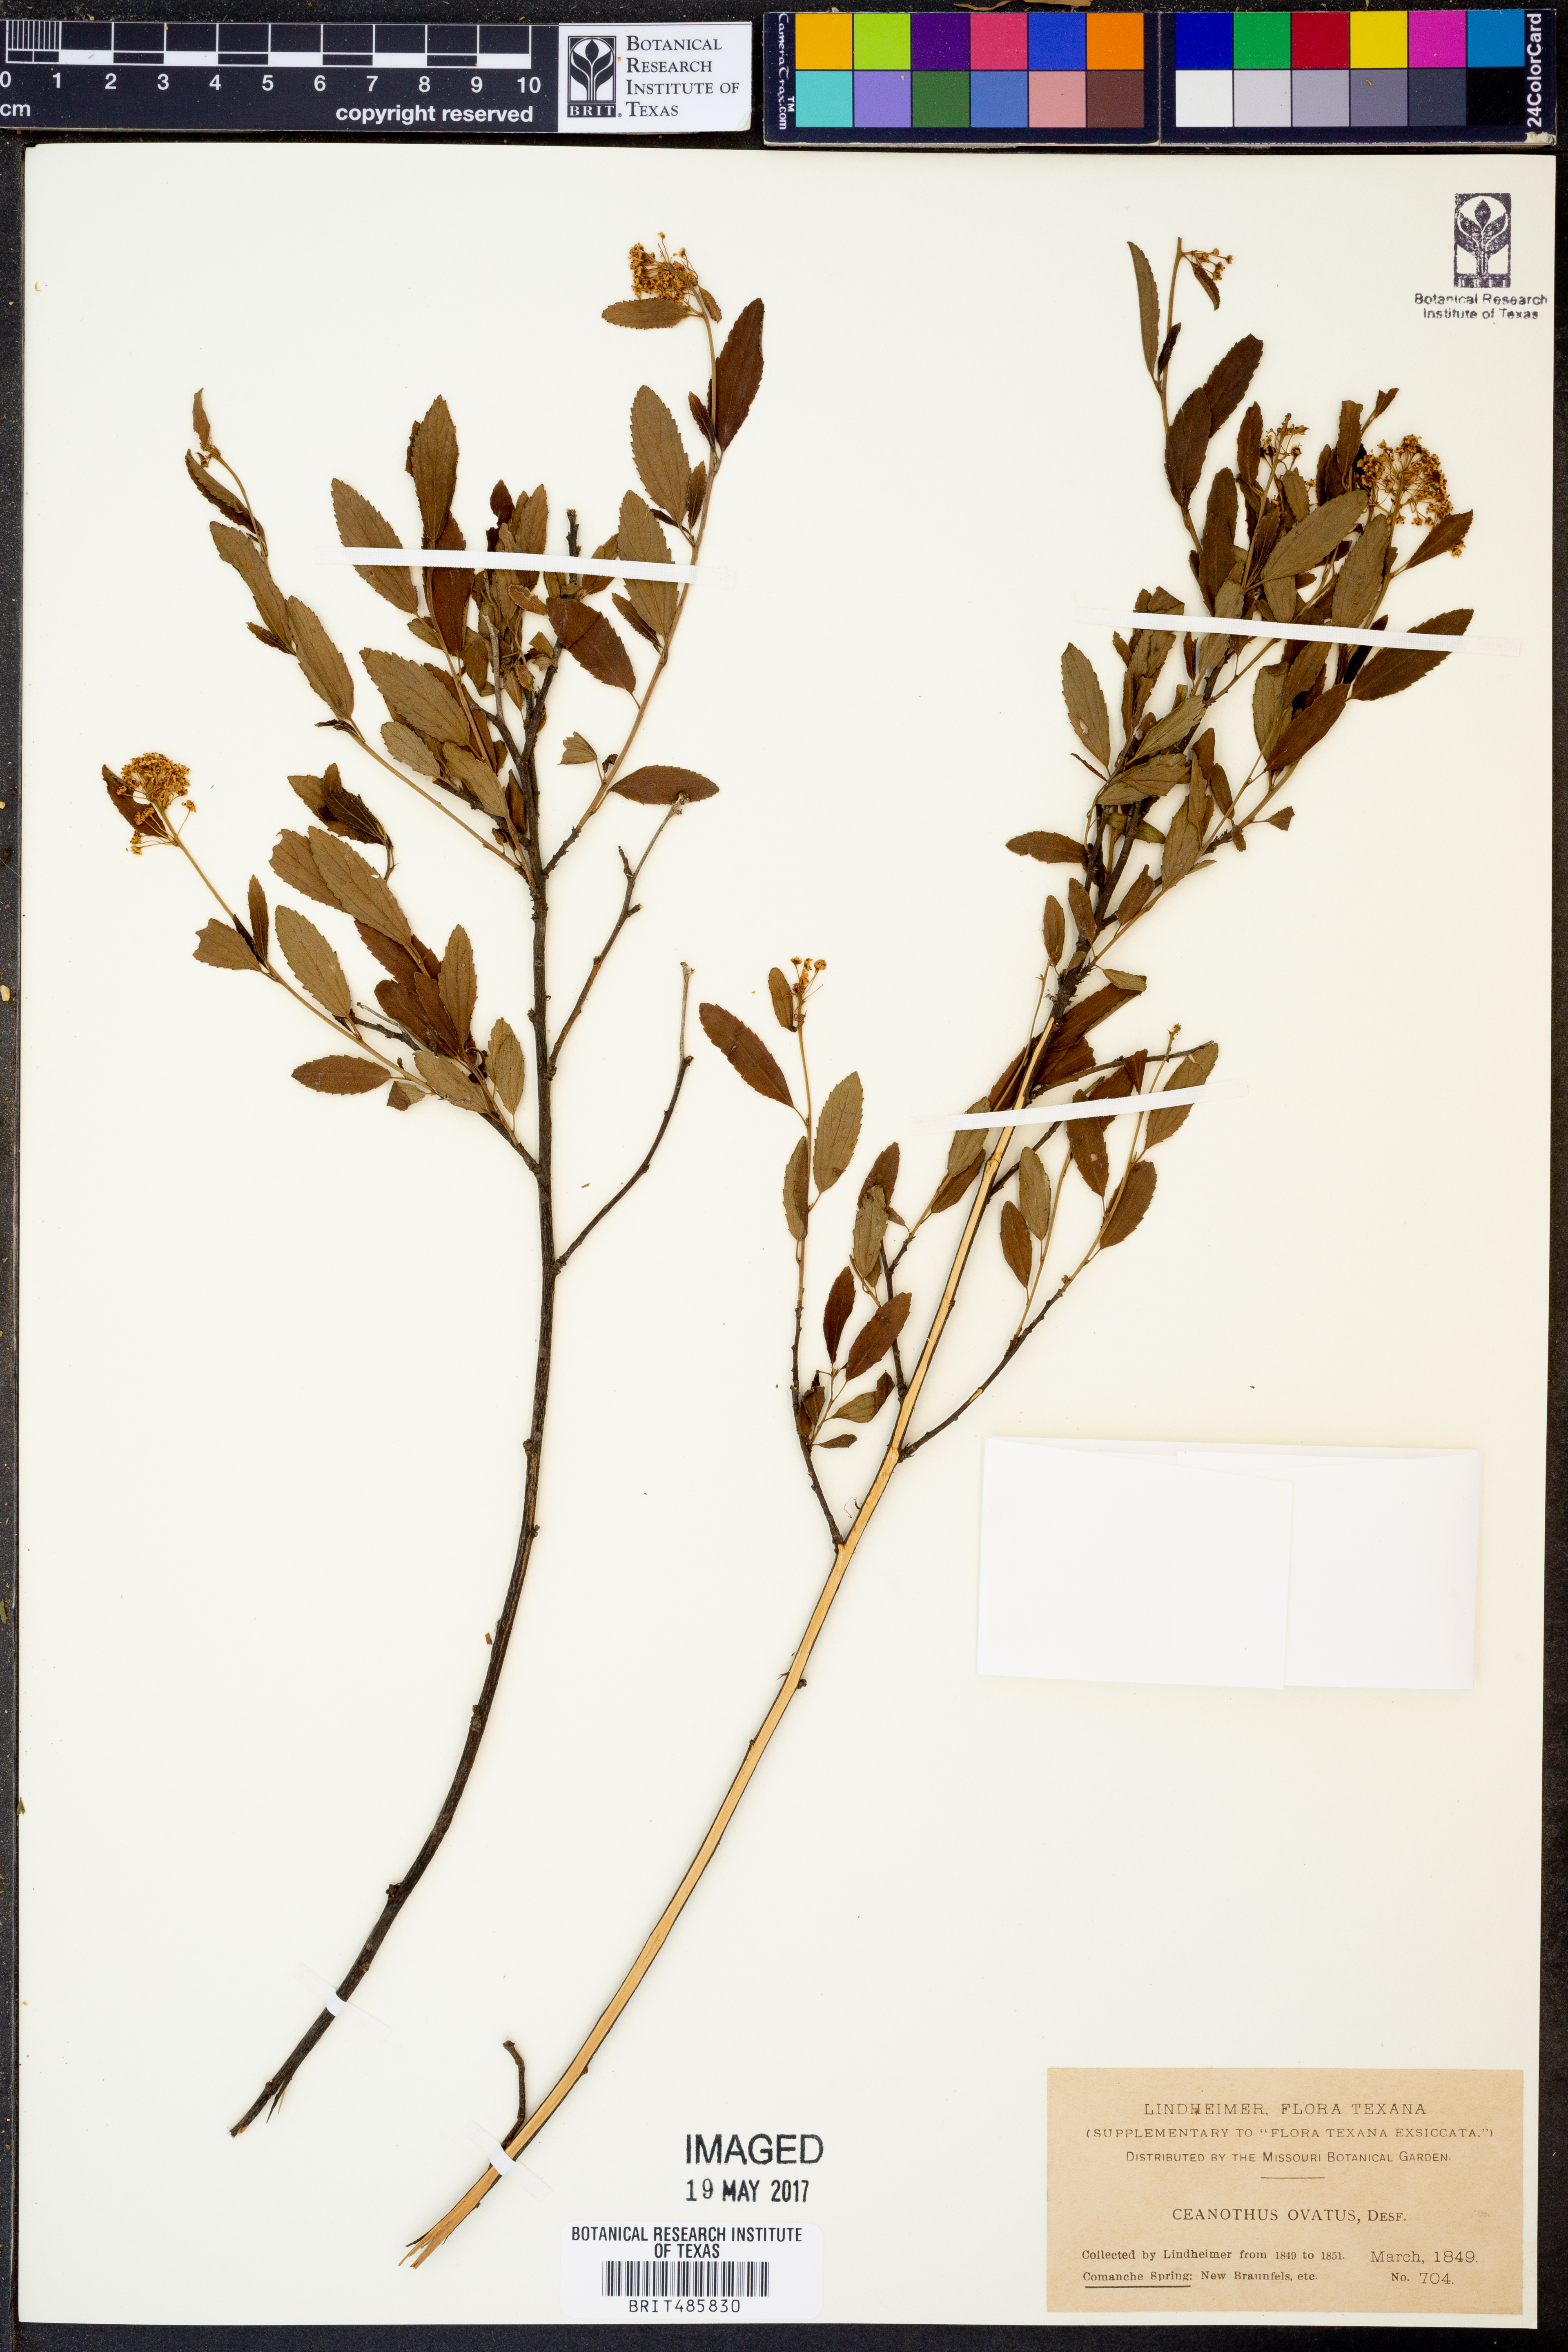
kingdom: Plantae
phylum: Tracheophyta
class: Magnoliopsida
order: Rosales
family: Rhamnaceae
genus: Ceanothus
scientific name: Ceanothus herbaceus
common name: Inland ceanothus
